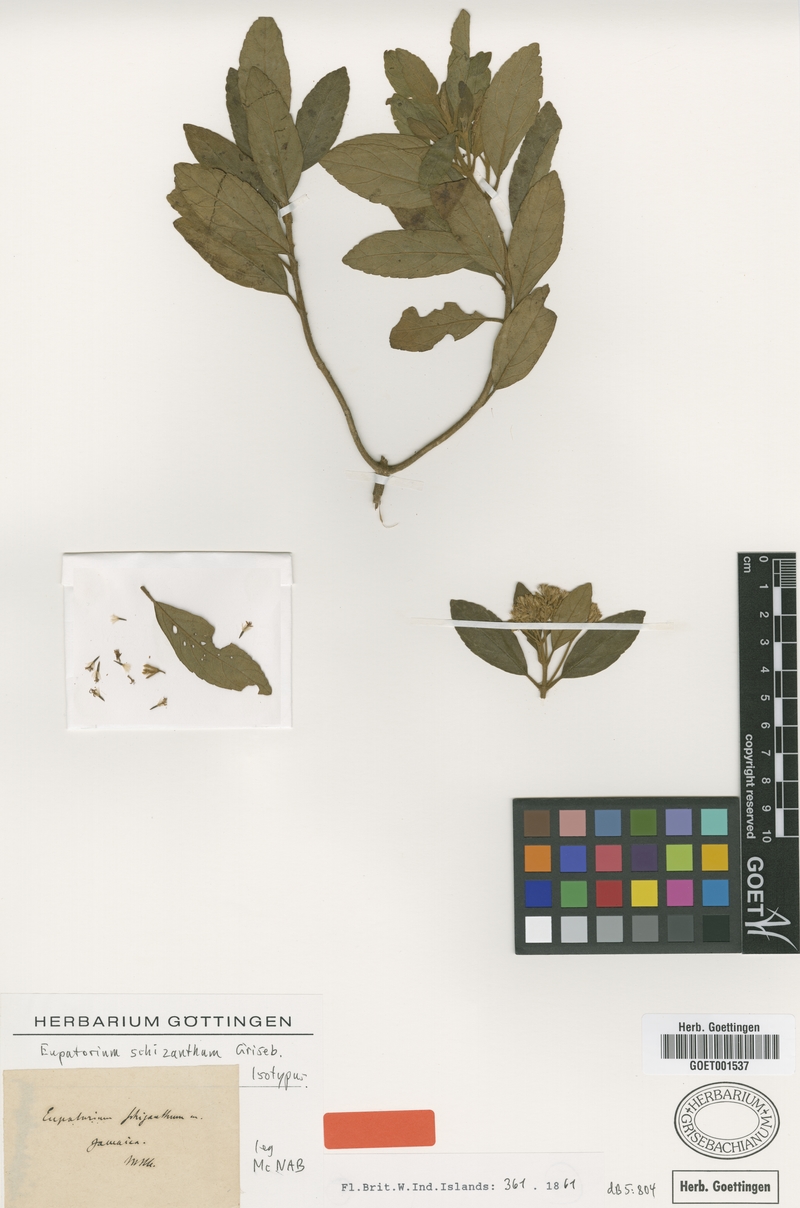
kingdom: Plantae
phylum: Tracheophyta
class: Magnoliopsida
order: Asterales
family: Asteraceae
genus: Eupatorium
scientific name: Eupatorium schizanthum
